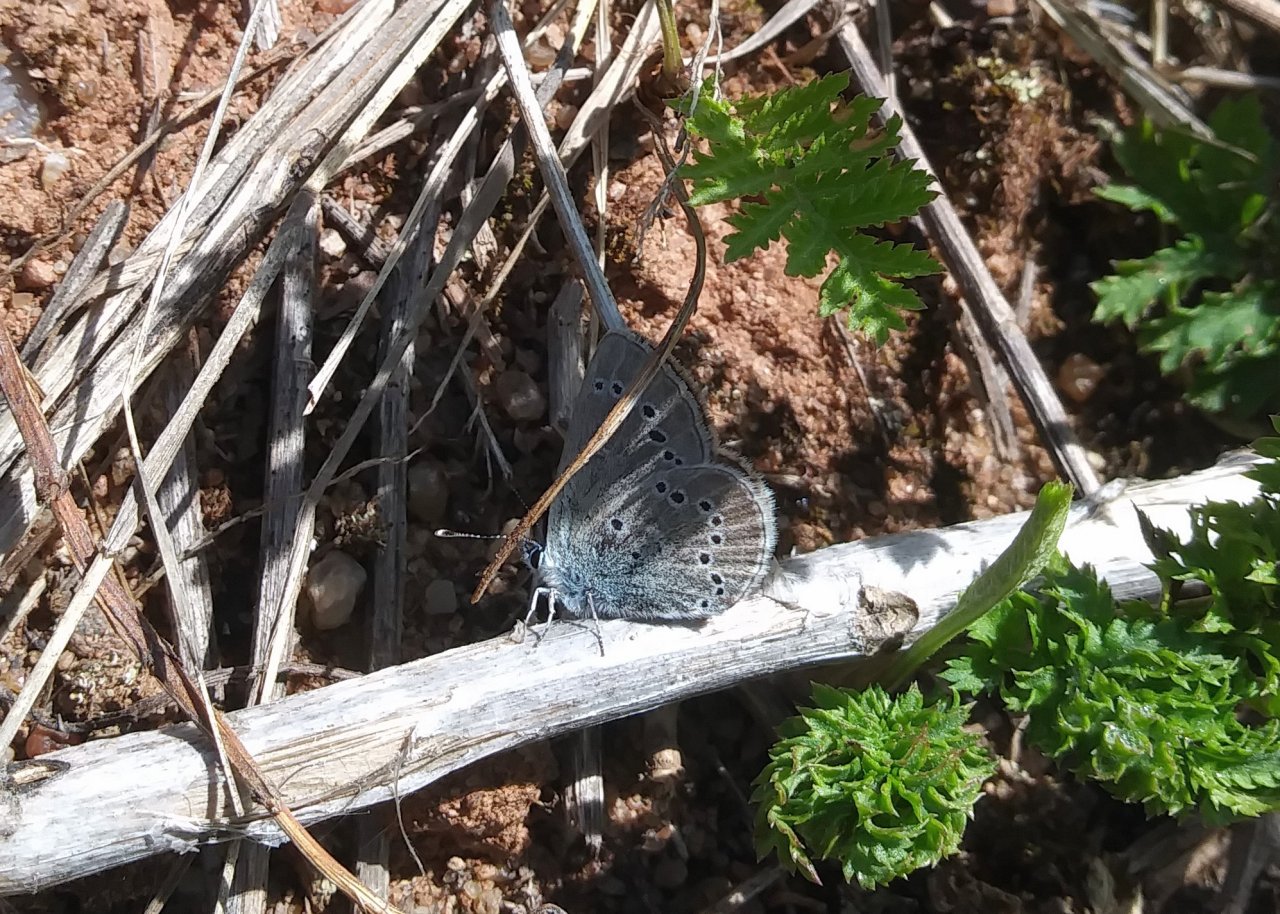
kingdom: Animalia
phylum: Arthropoda
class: Insecta
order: Lepidoptera
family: Lycaenidae
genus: Glaucopsyche
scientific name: Glaucopsyche lygdamus
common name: Silvery Blue
